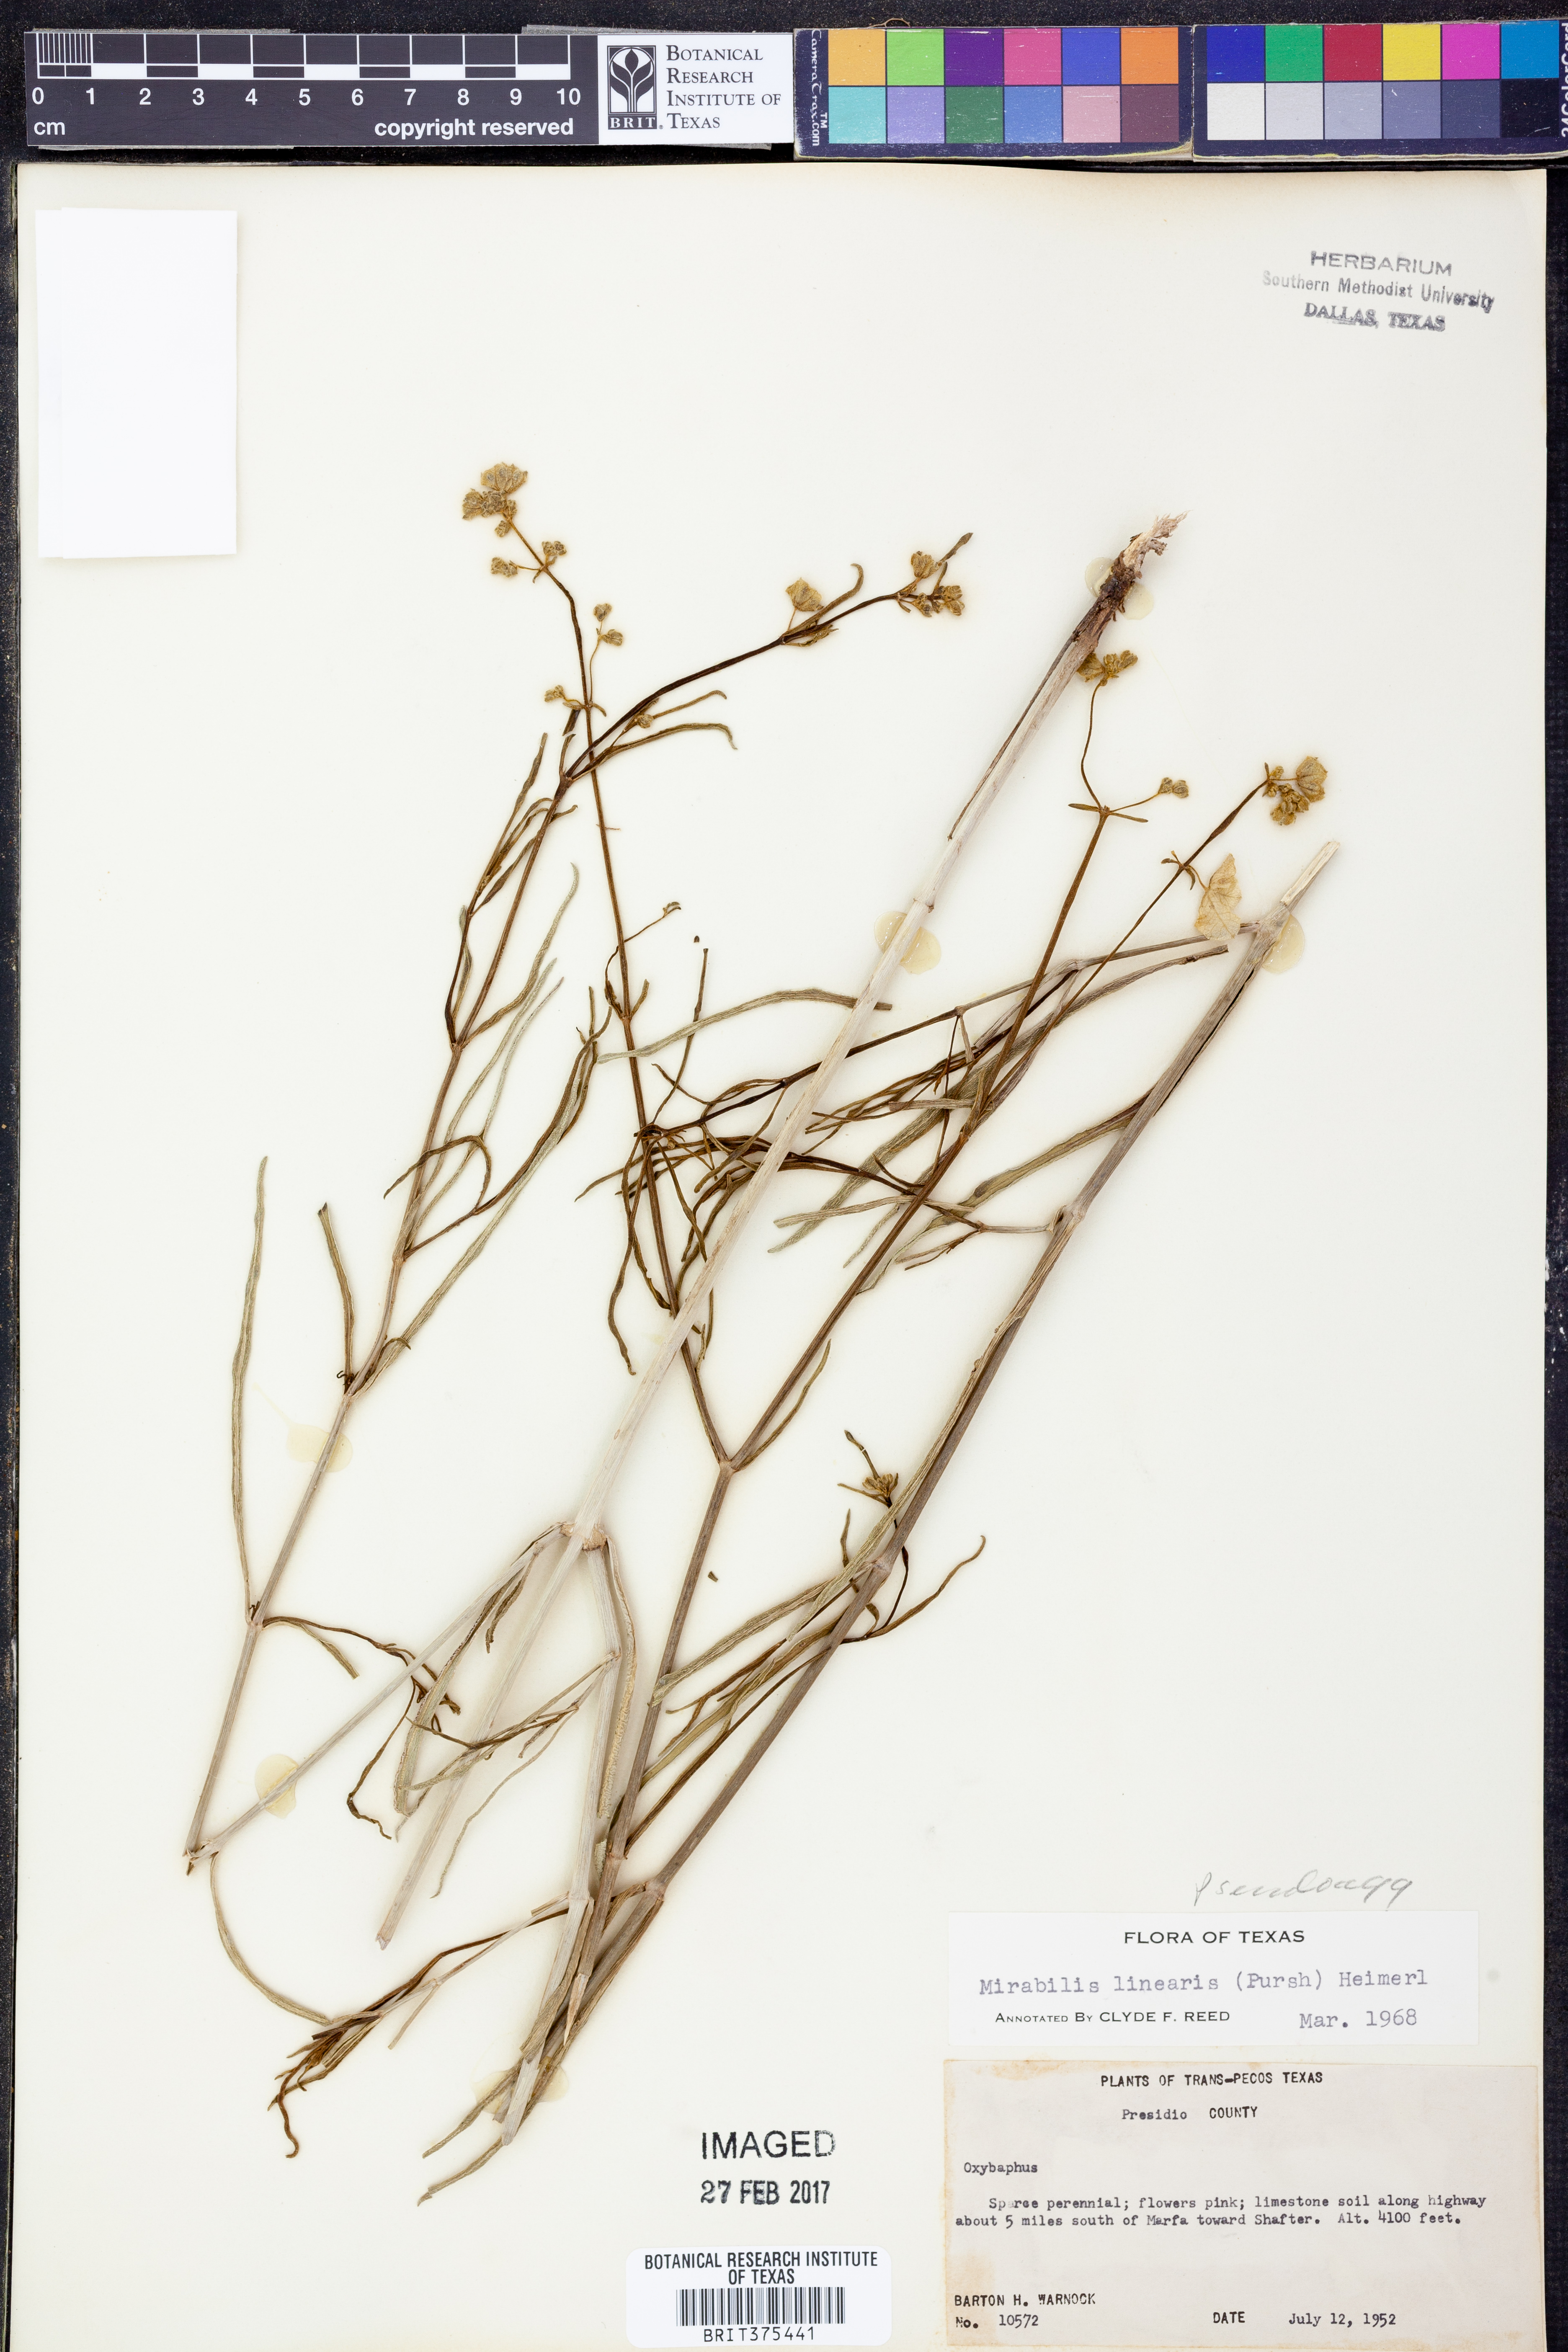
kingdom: Plantae
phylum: Tracheophyta
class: Magnoliopsida
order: Caryophyllales
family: Nyctaginaceae
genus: Mirabilis
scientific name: Mirabilis albida
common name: Hairy four-o'clock
